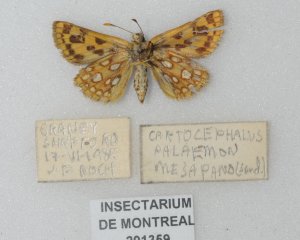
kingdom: Animalia
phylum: Arthropoda
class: Insecta
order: Lepidoptera
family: Hesperiidae
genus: Carterocephalus
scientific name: Carterocephalus palaemon
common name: Chequered Skipper
